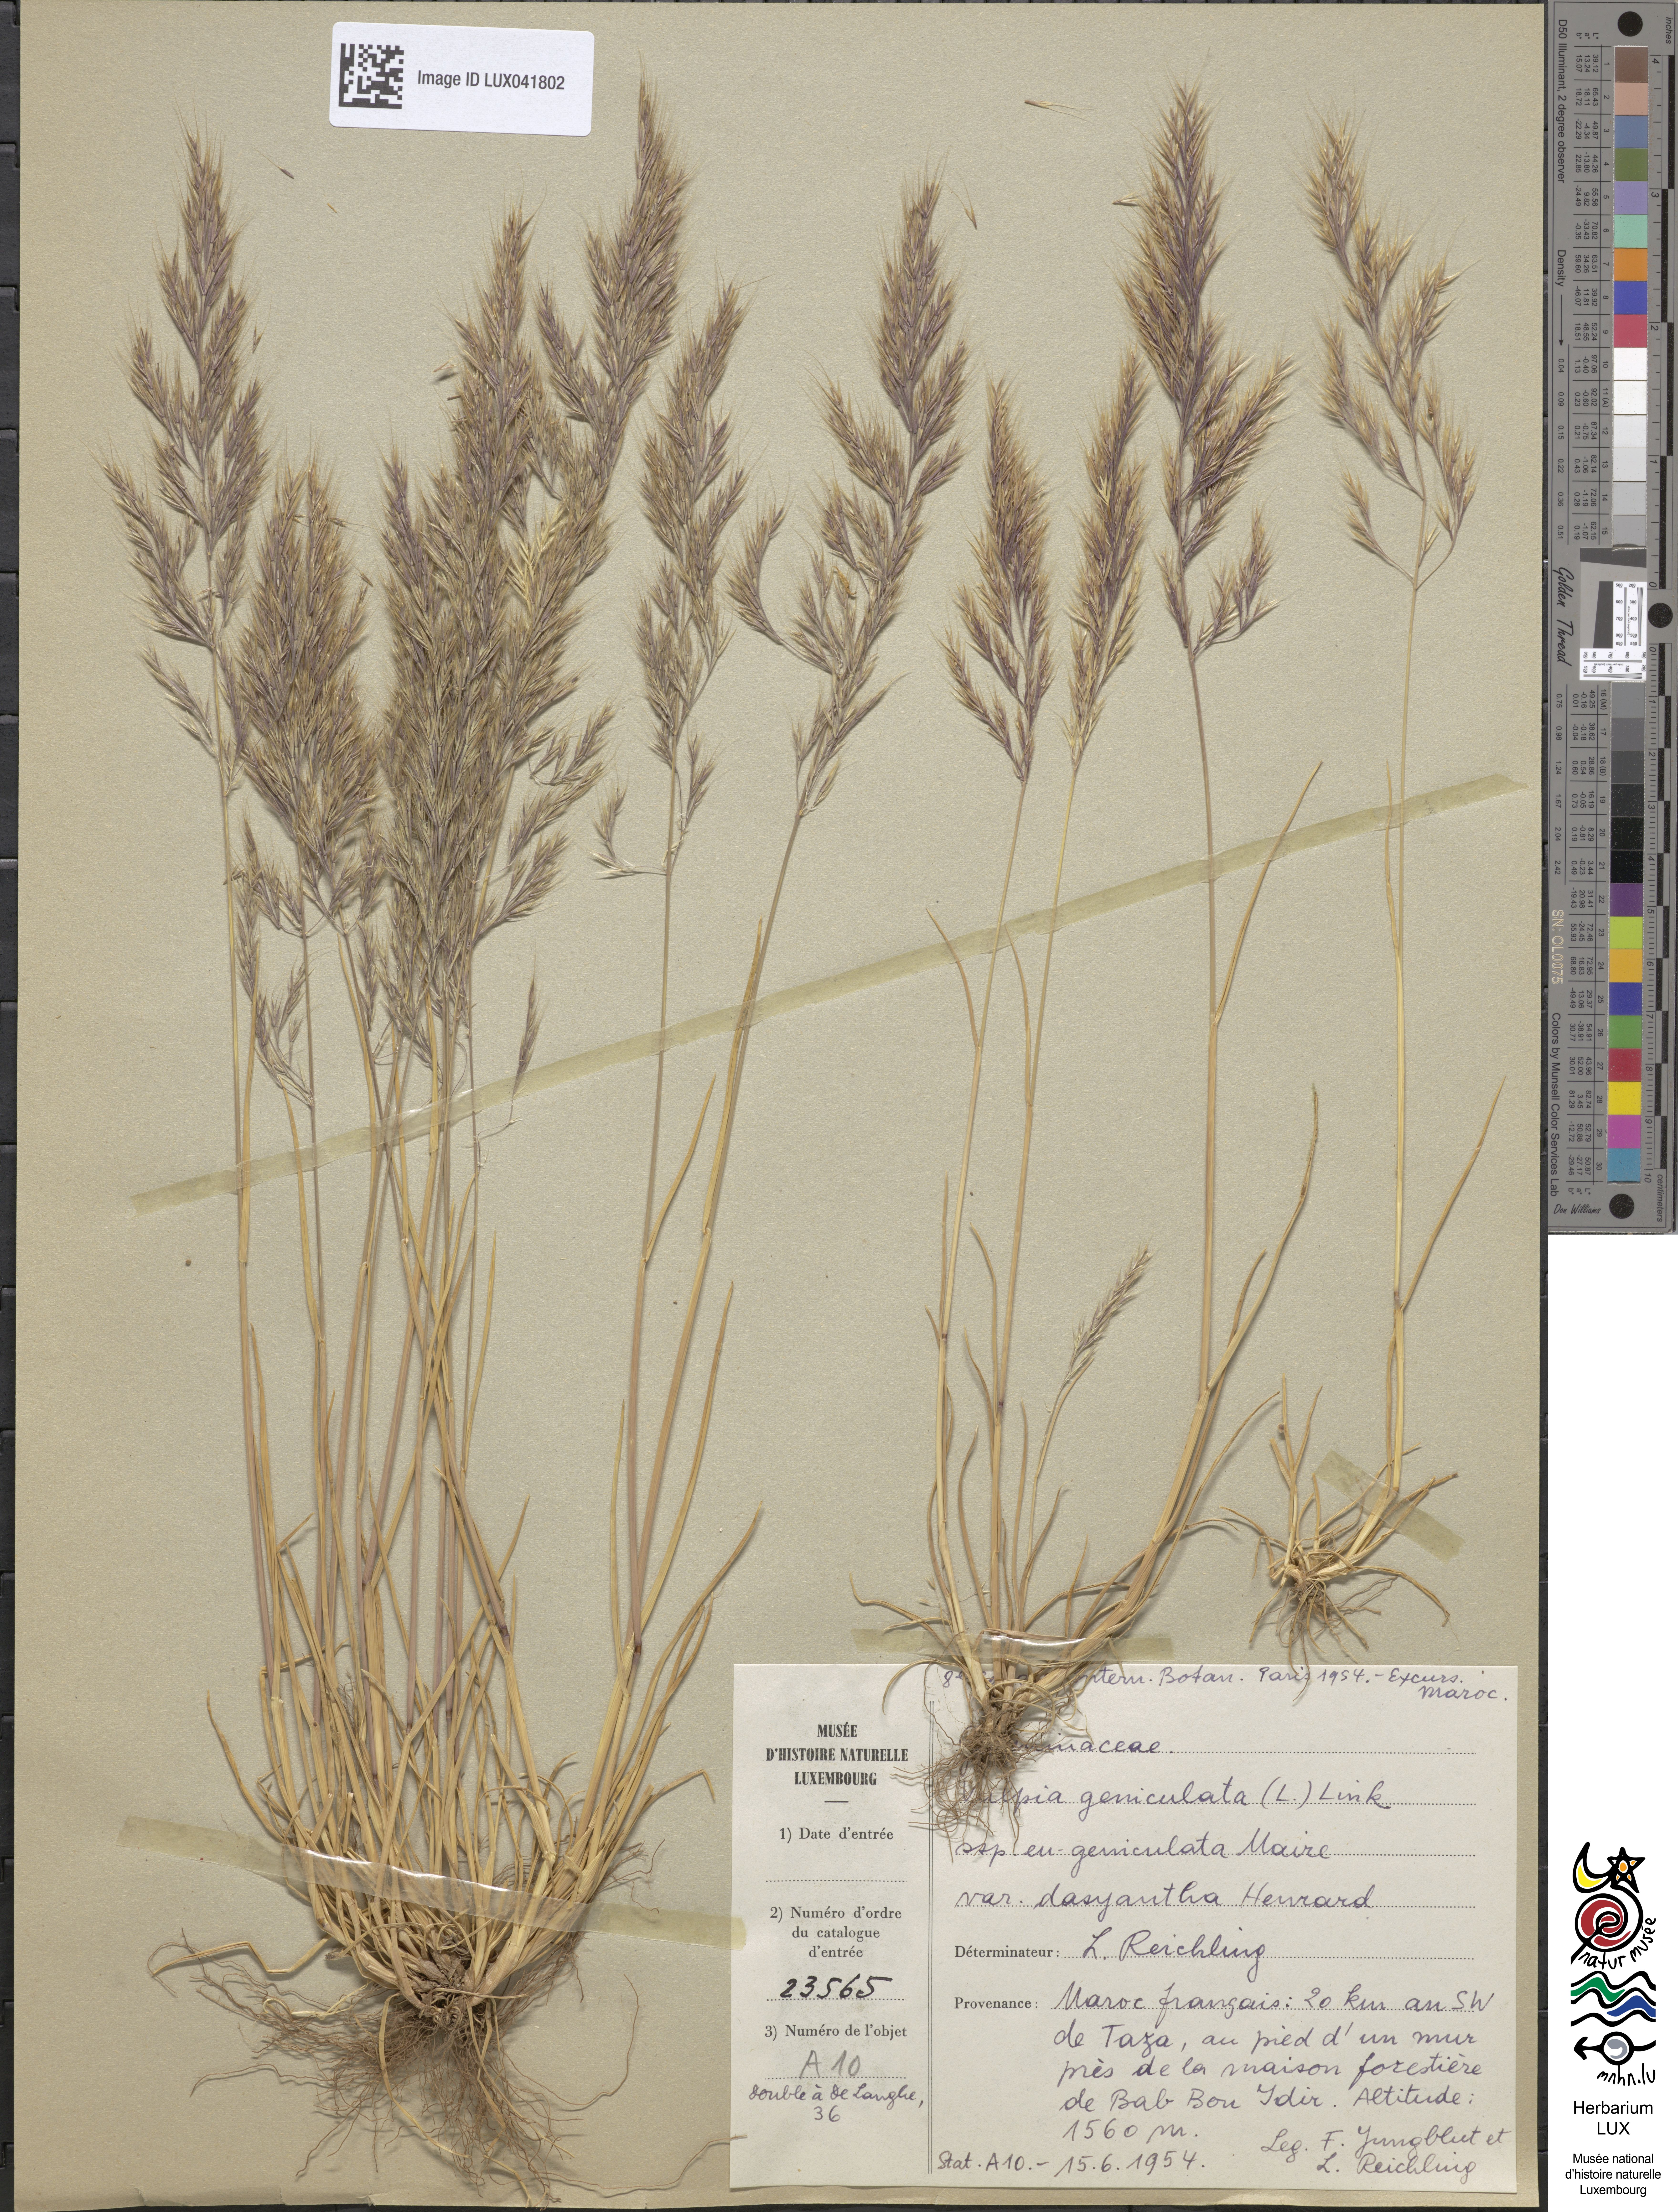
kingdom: Plantae
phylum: Tracheophyta
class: Liliopsida
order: Poales
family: Poaceae
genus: Festuca
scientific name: Festuca geniculata
